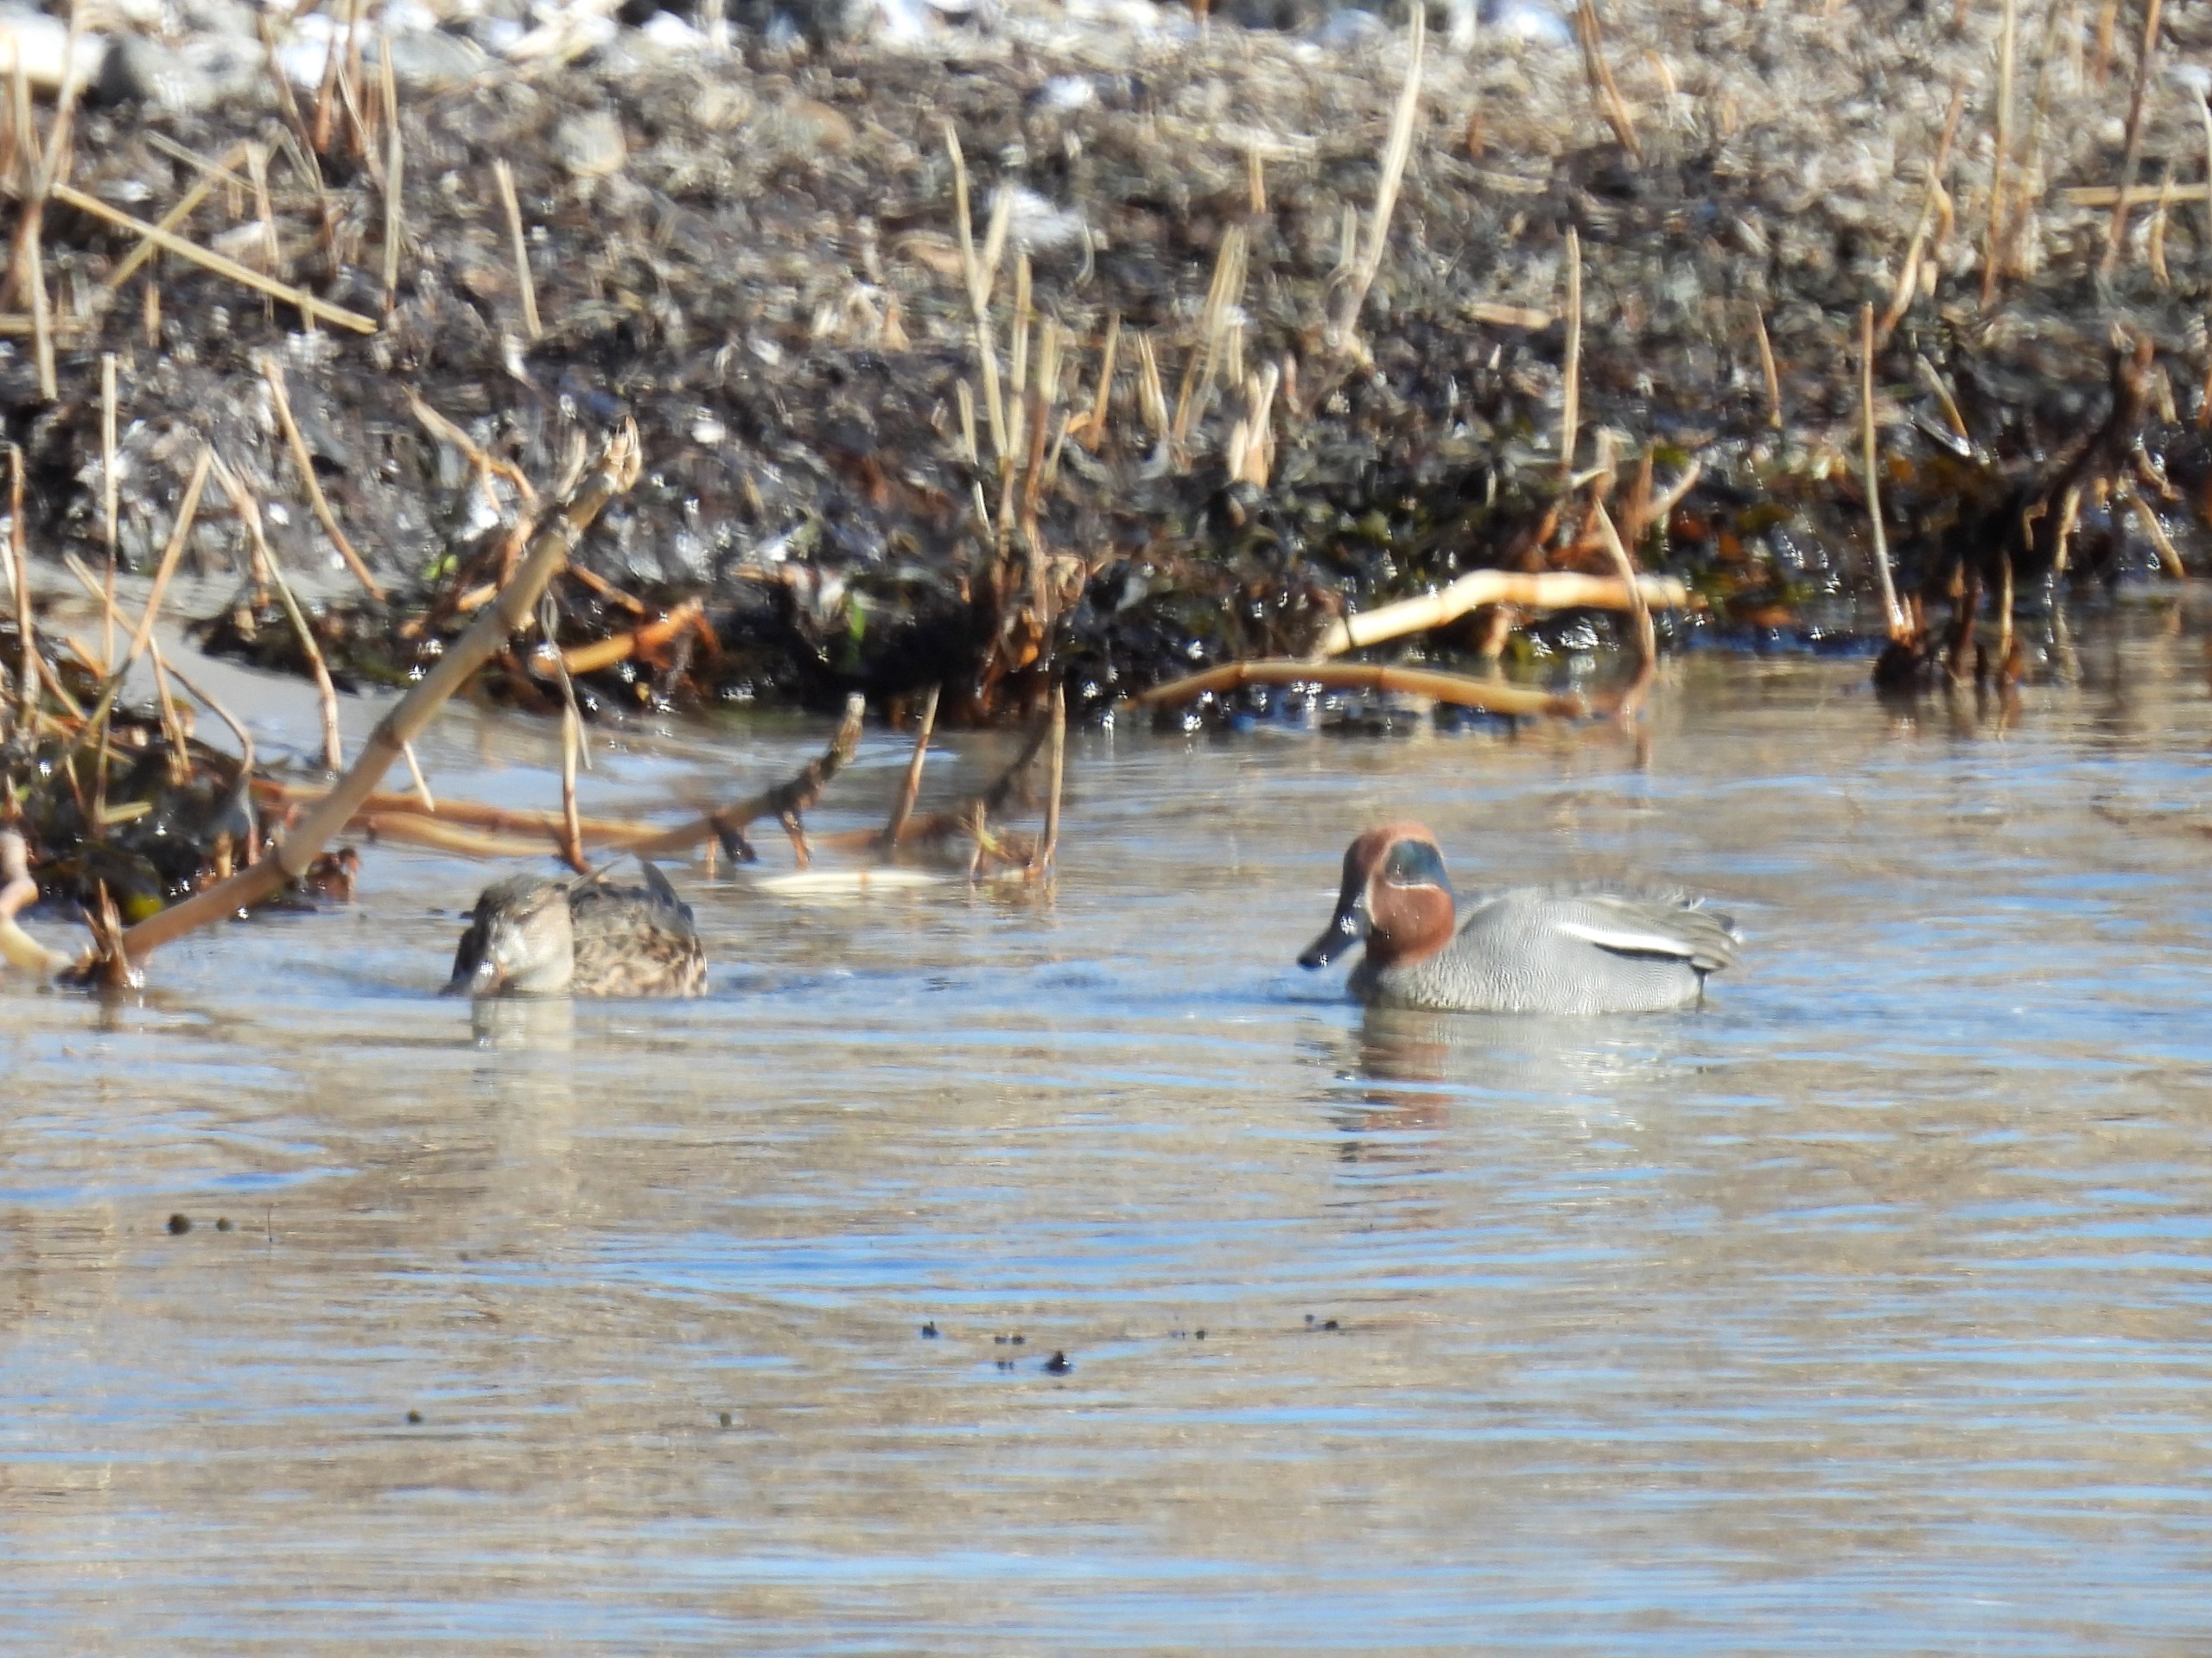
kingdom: Animalia
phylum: Chordata
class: Aves
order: Anseriformes
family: Anatidae
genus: Anas
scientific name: Anas crecca
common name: Krikand
